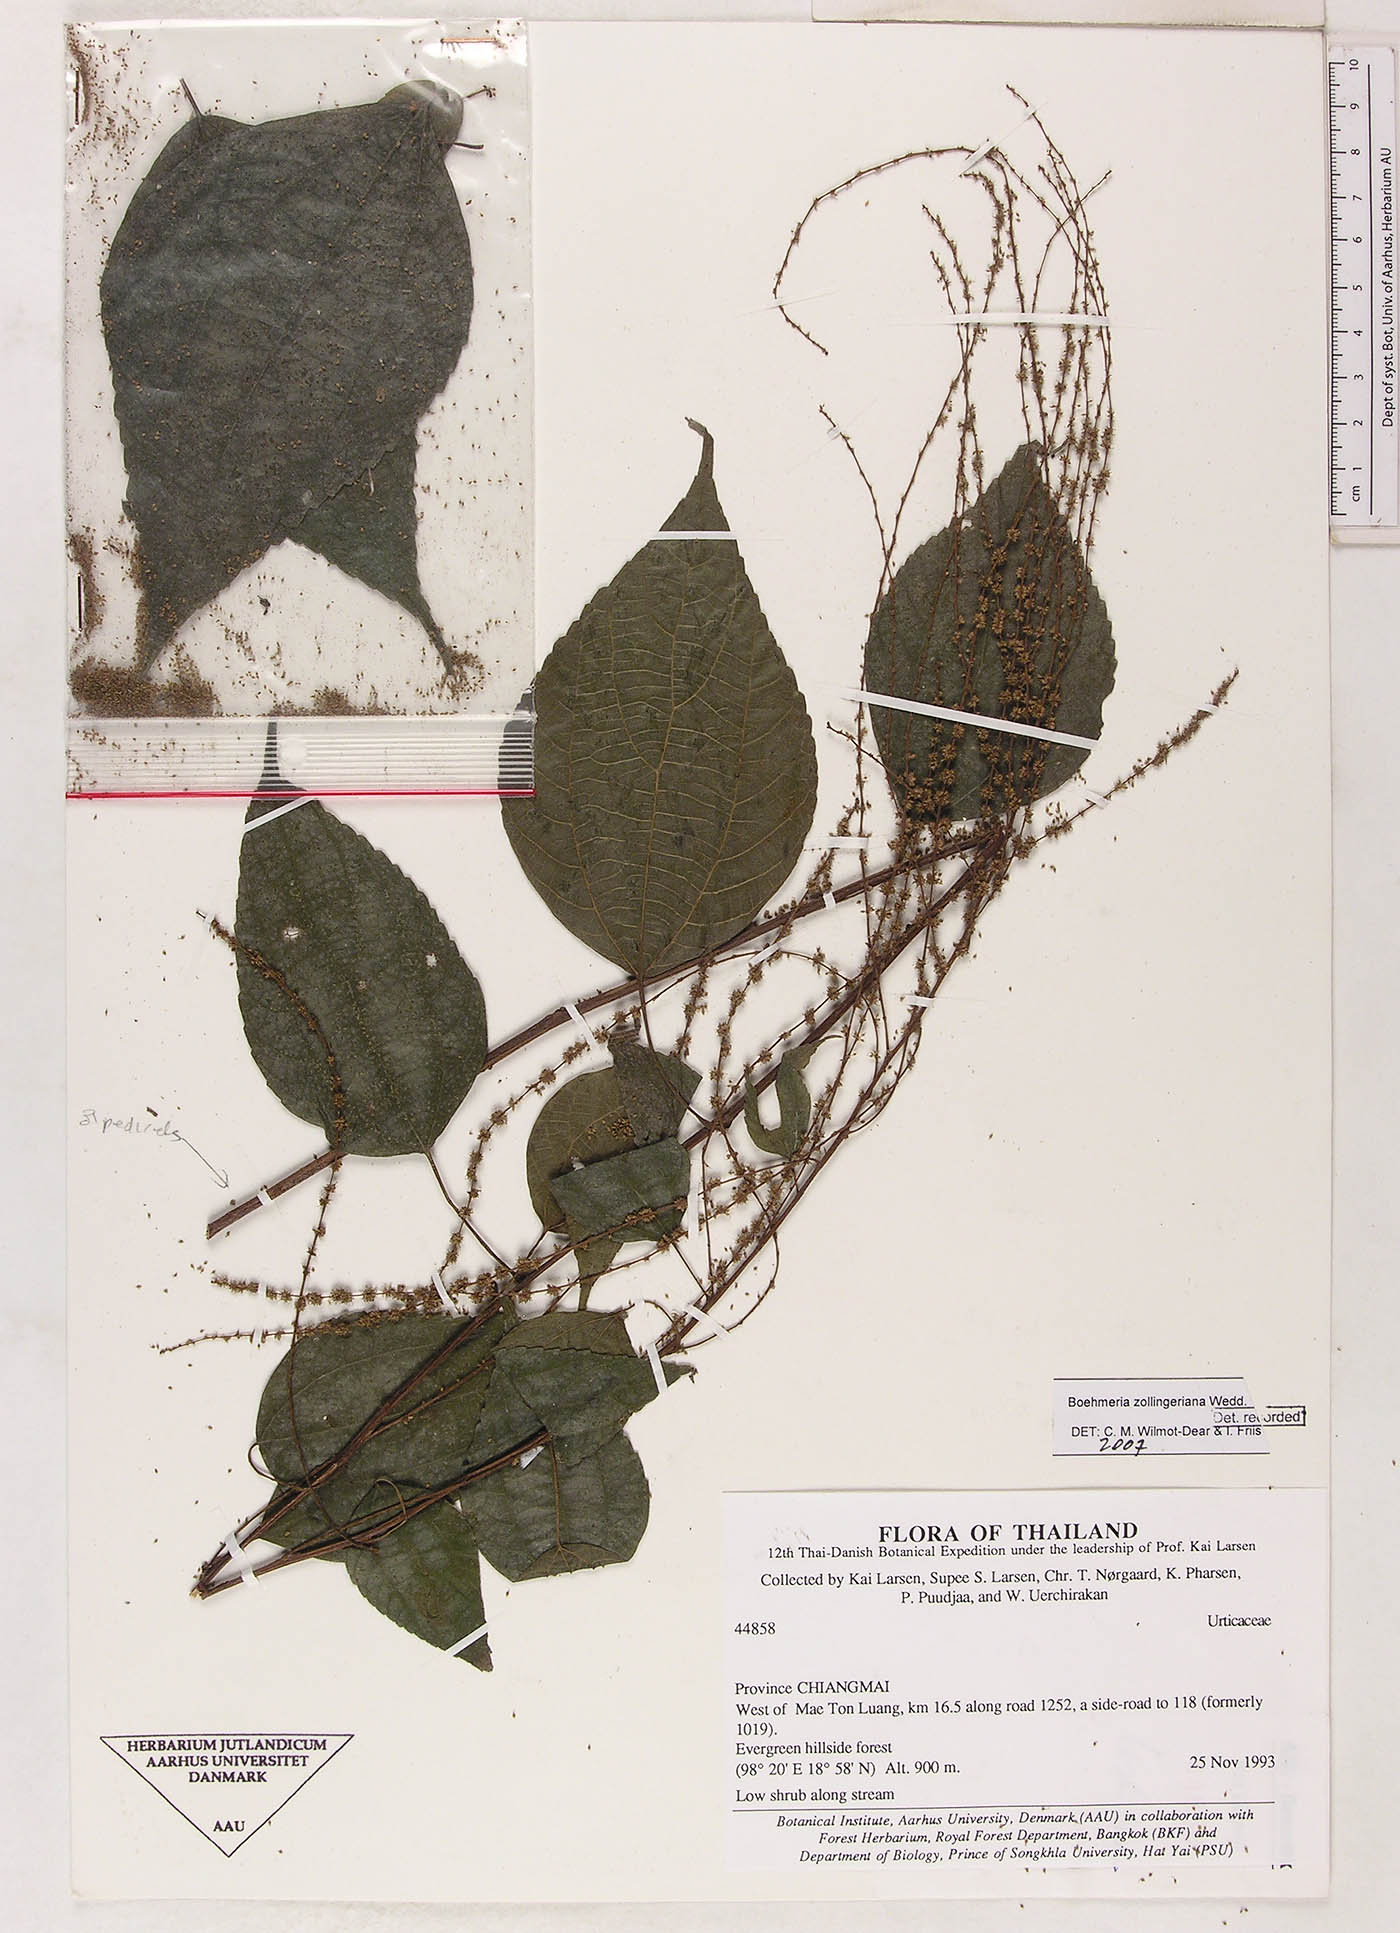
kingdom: Plantae
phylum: Tracheophyta
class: Magnoliopsida
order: Rosales
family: Urticaceae
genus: Boehmeria
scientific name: Boehmeria zollingeriana
